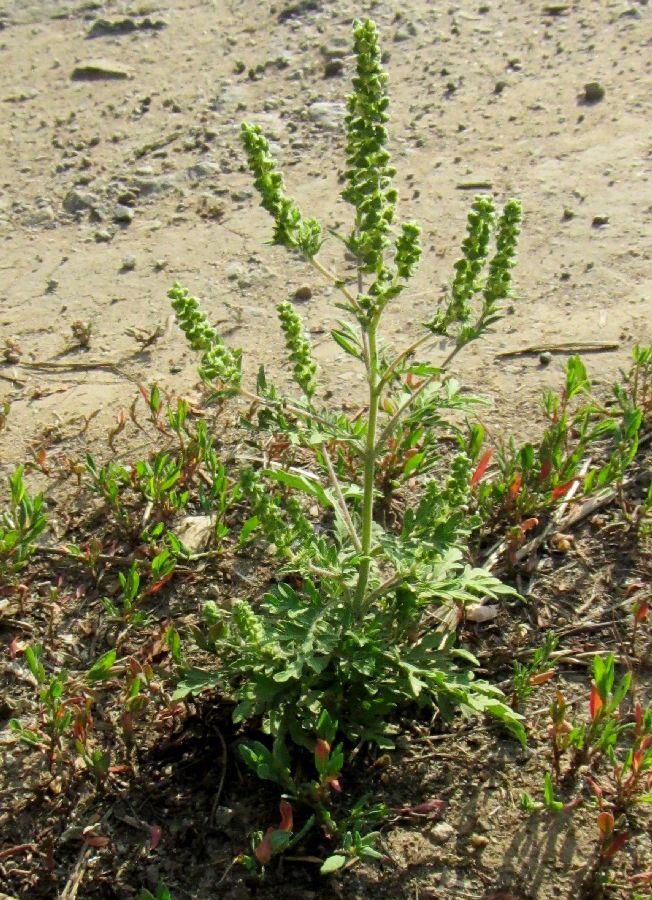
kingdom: Plantae
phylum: Tracheophyta
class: Magnoliopsida
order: Asterales
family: Asteraceae
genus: Ambrosia
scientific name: Ambrosia artemisiifolia
